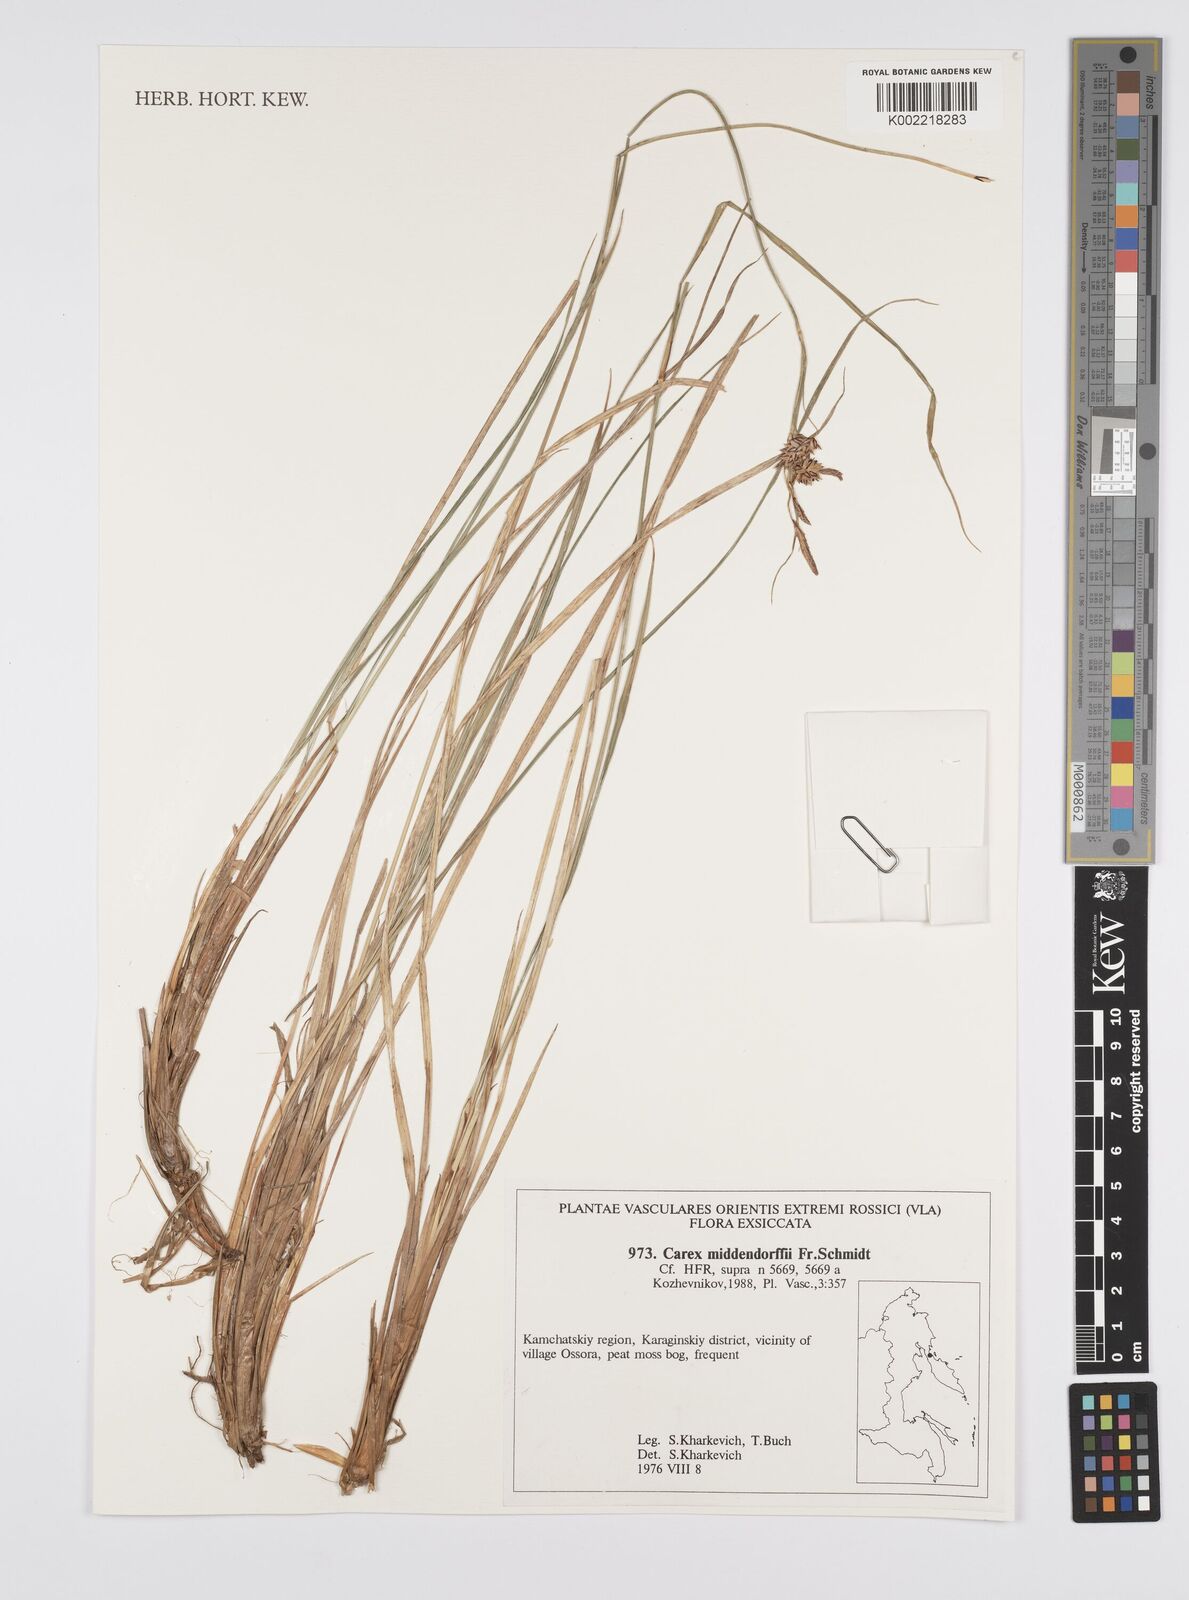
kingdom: Plantae
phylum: Tracheophyta
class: Liliopsida
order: Poales
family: Cyperaceae
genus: Carex
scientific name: Carex middendorffii
